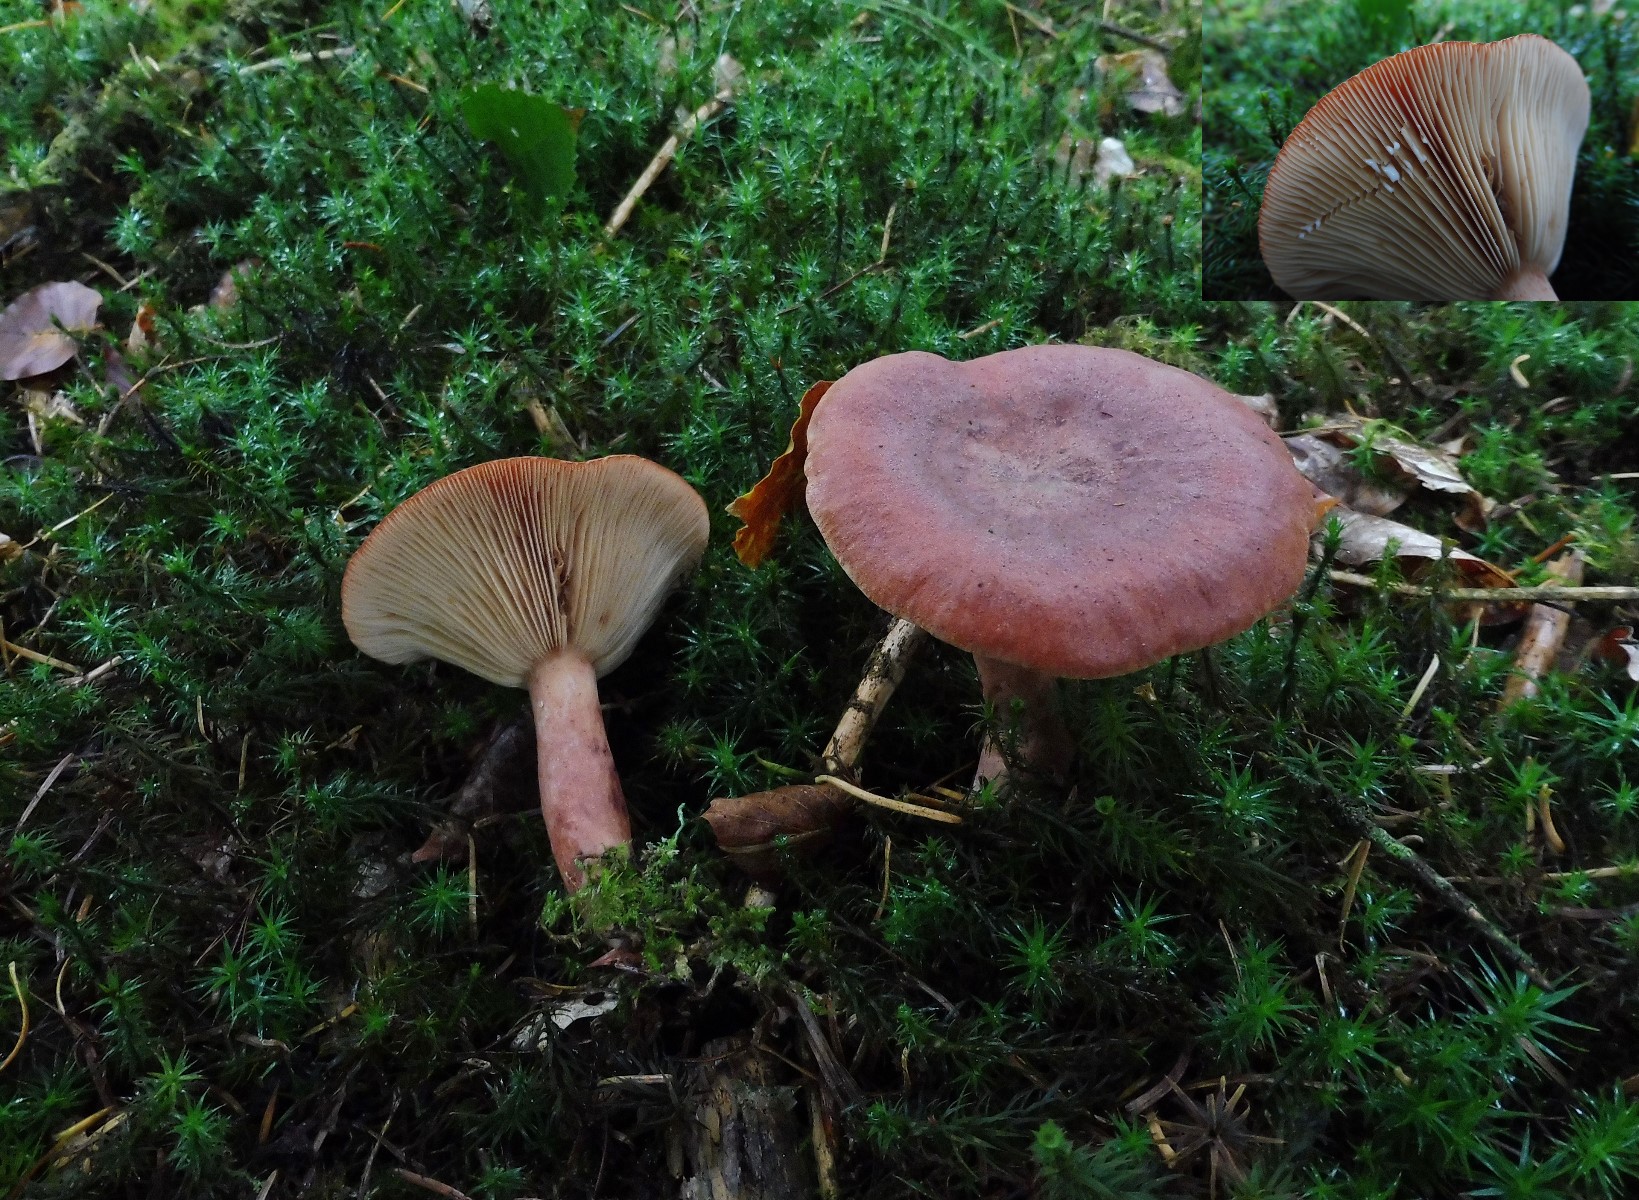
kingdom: Fungi
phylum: Basidiomycota
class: Agaricomycetes
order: Russulales
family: Russulaceae
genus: Lactarius
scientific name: Lactarius rufus
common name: rødbrun mælkehat
